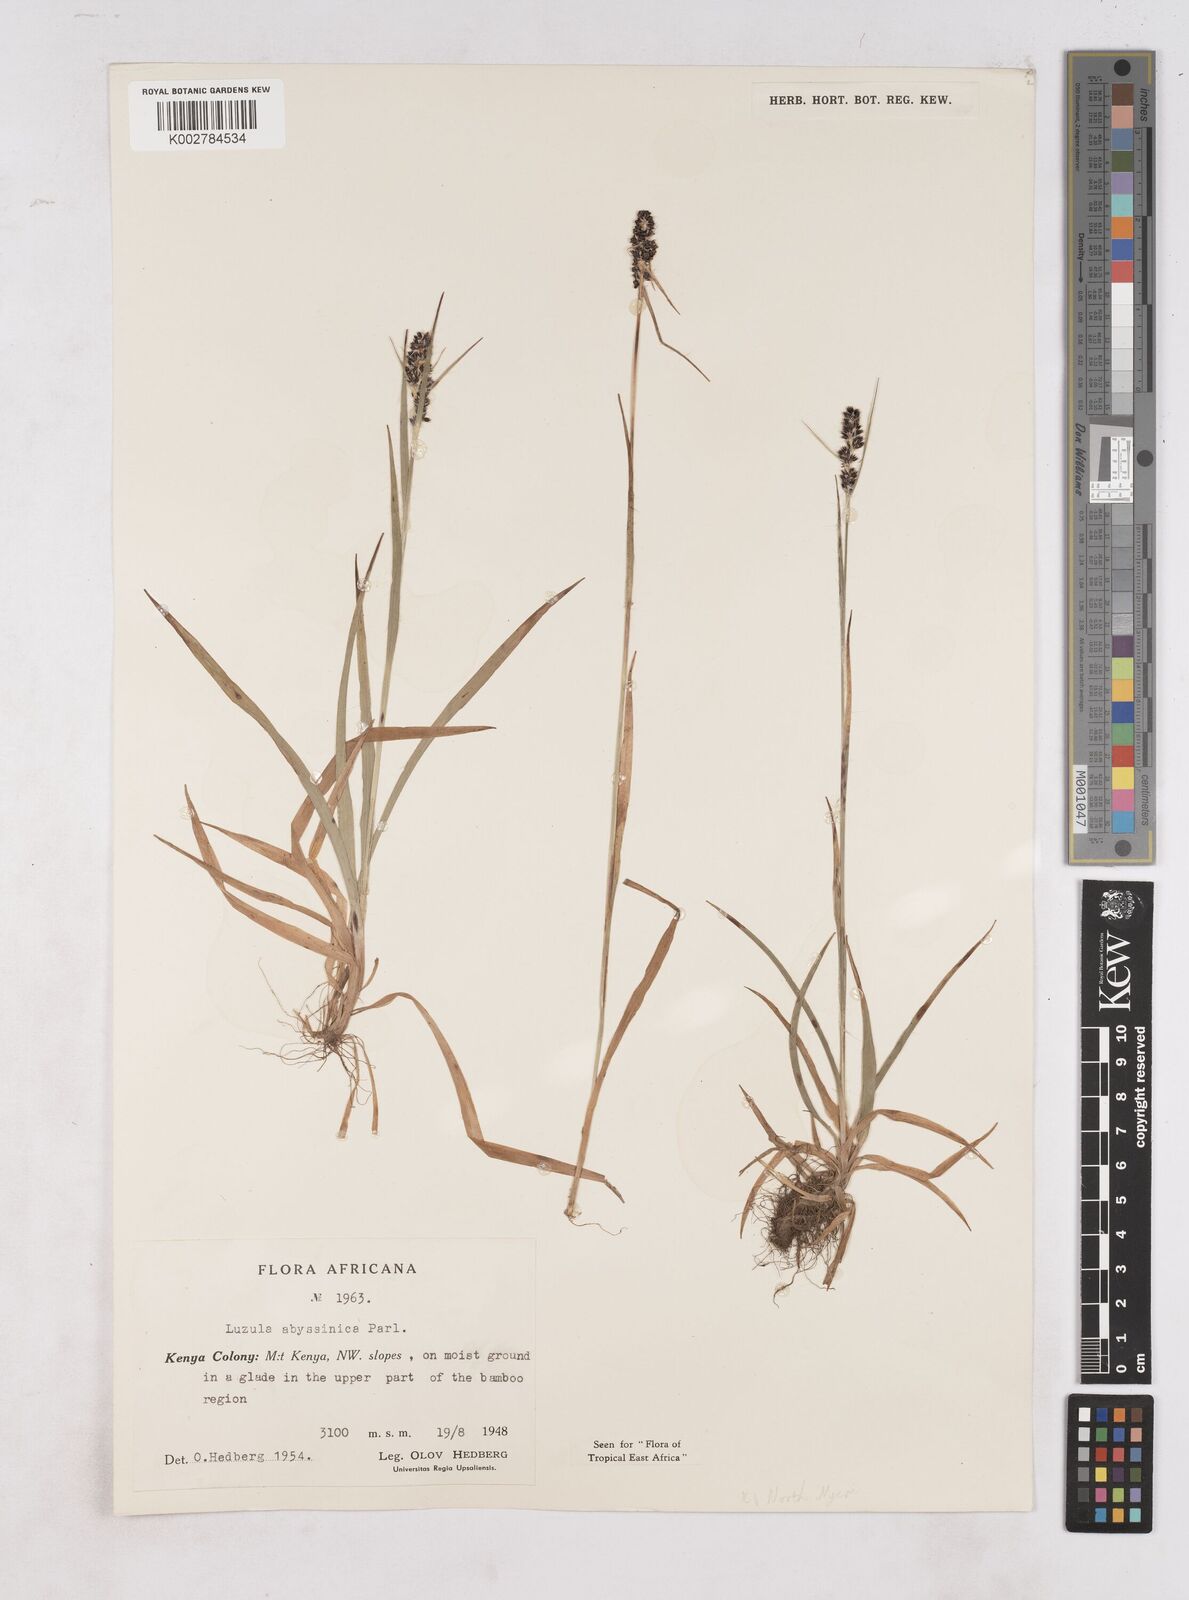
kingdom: Plantae
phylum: Tracheophyta
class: Liliopsida
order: Poales
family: Juncaceae
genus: Luzula
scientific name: Luzula abyssinica
